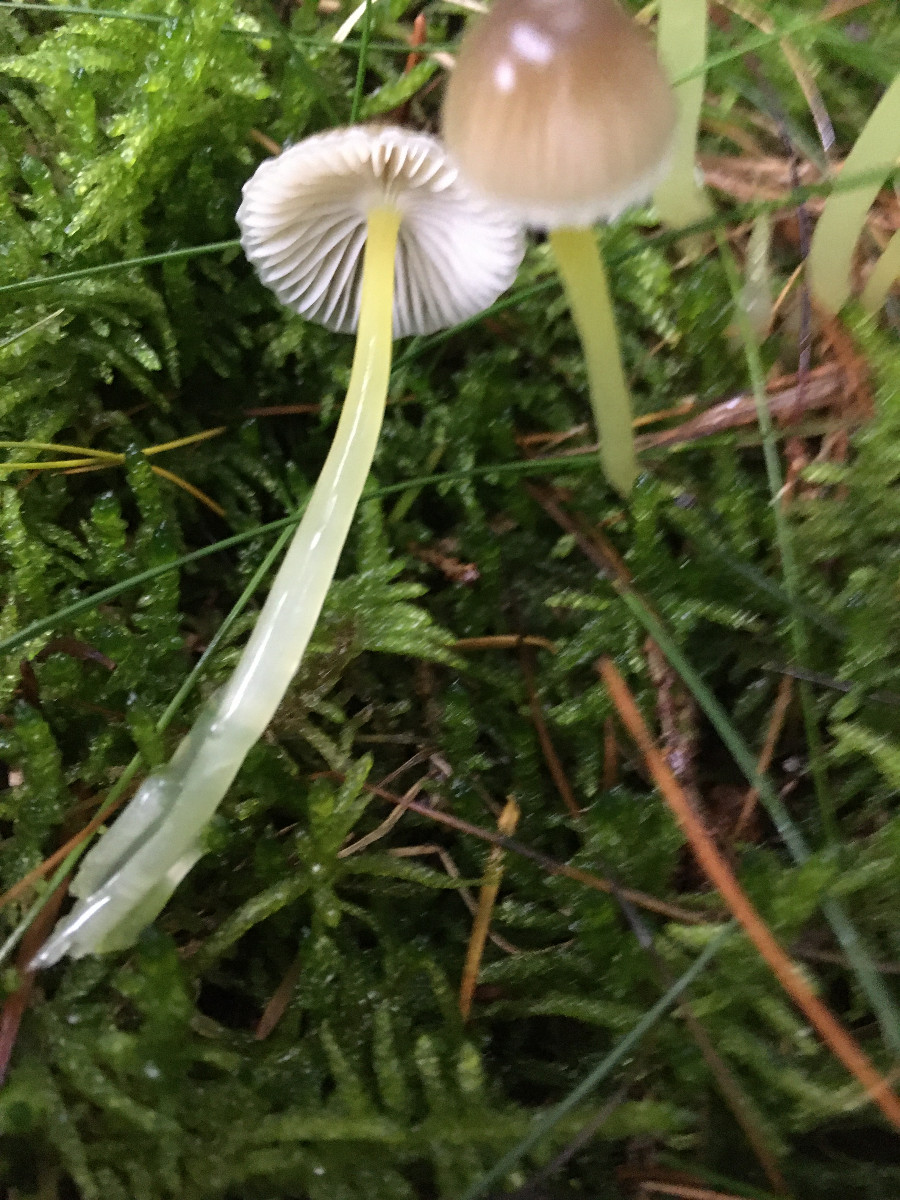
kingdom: Fungi
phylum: Basidiomycota
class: Agaricomycetes
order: Agaricales
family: Mycenaceae
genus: Mycena
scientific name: Mycena epipterygia
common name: gulstokket huesvamp
